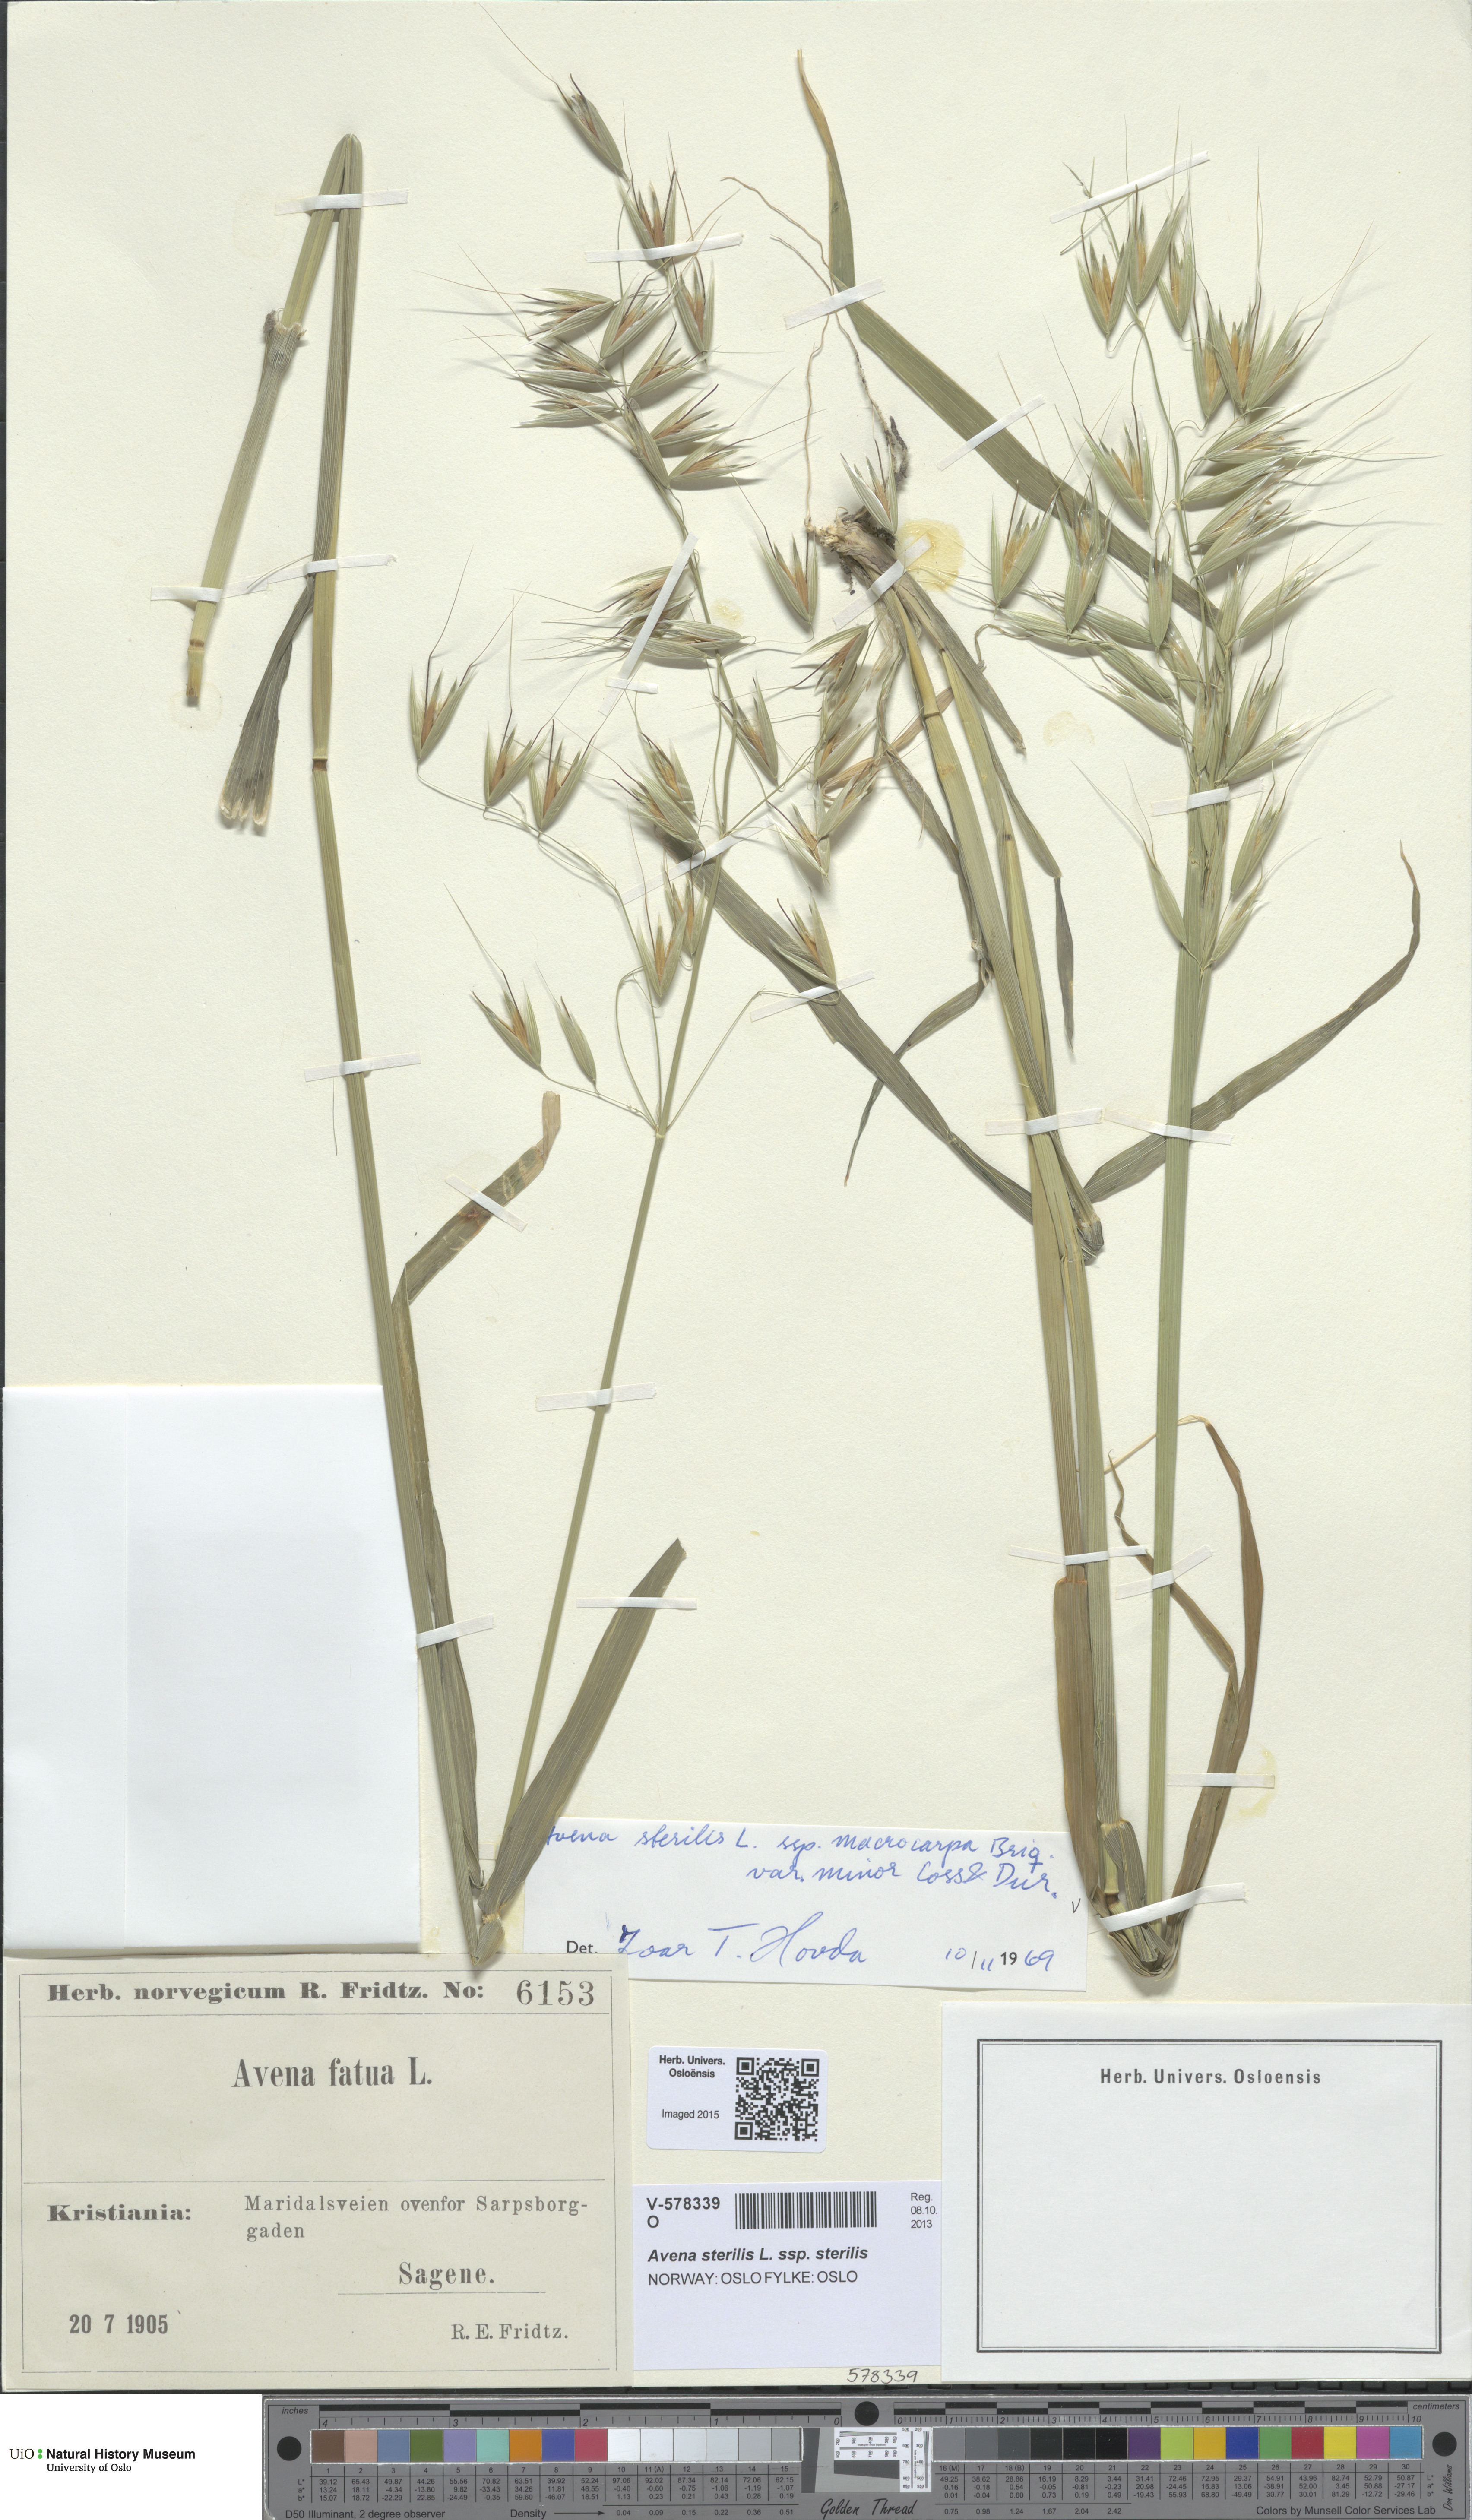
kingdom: Plantae
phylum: Tracheophyta
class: Liliopsida
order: Poales
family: Poaceae
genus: Avena
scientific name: Avena sterilis
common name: Animated oat
